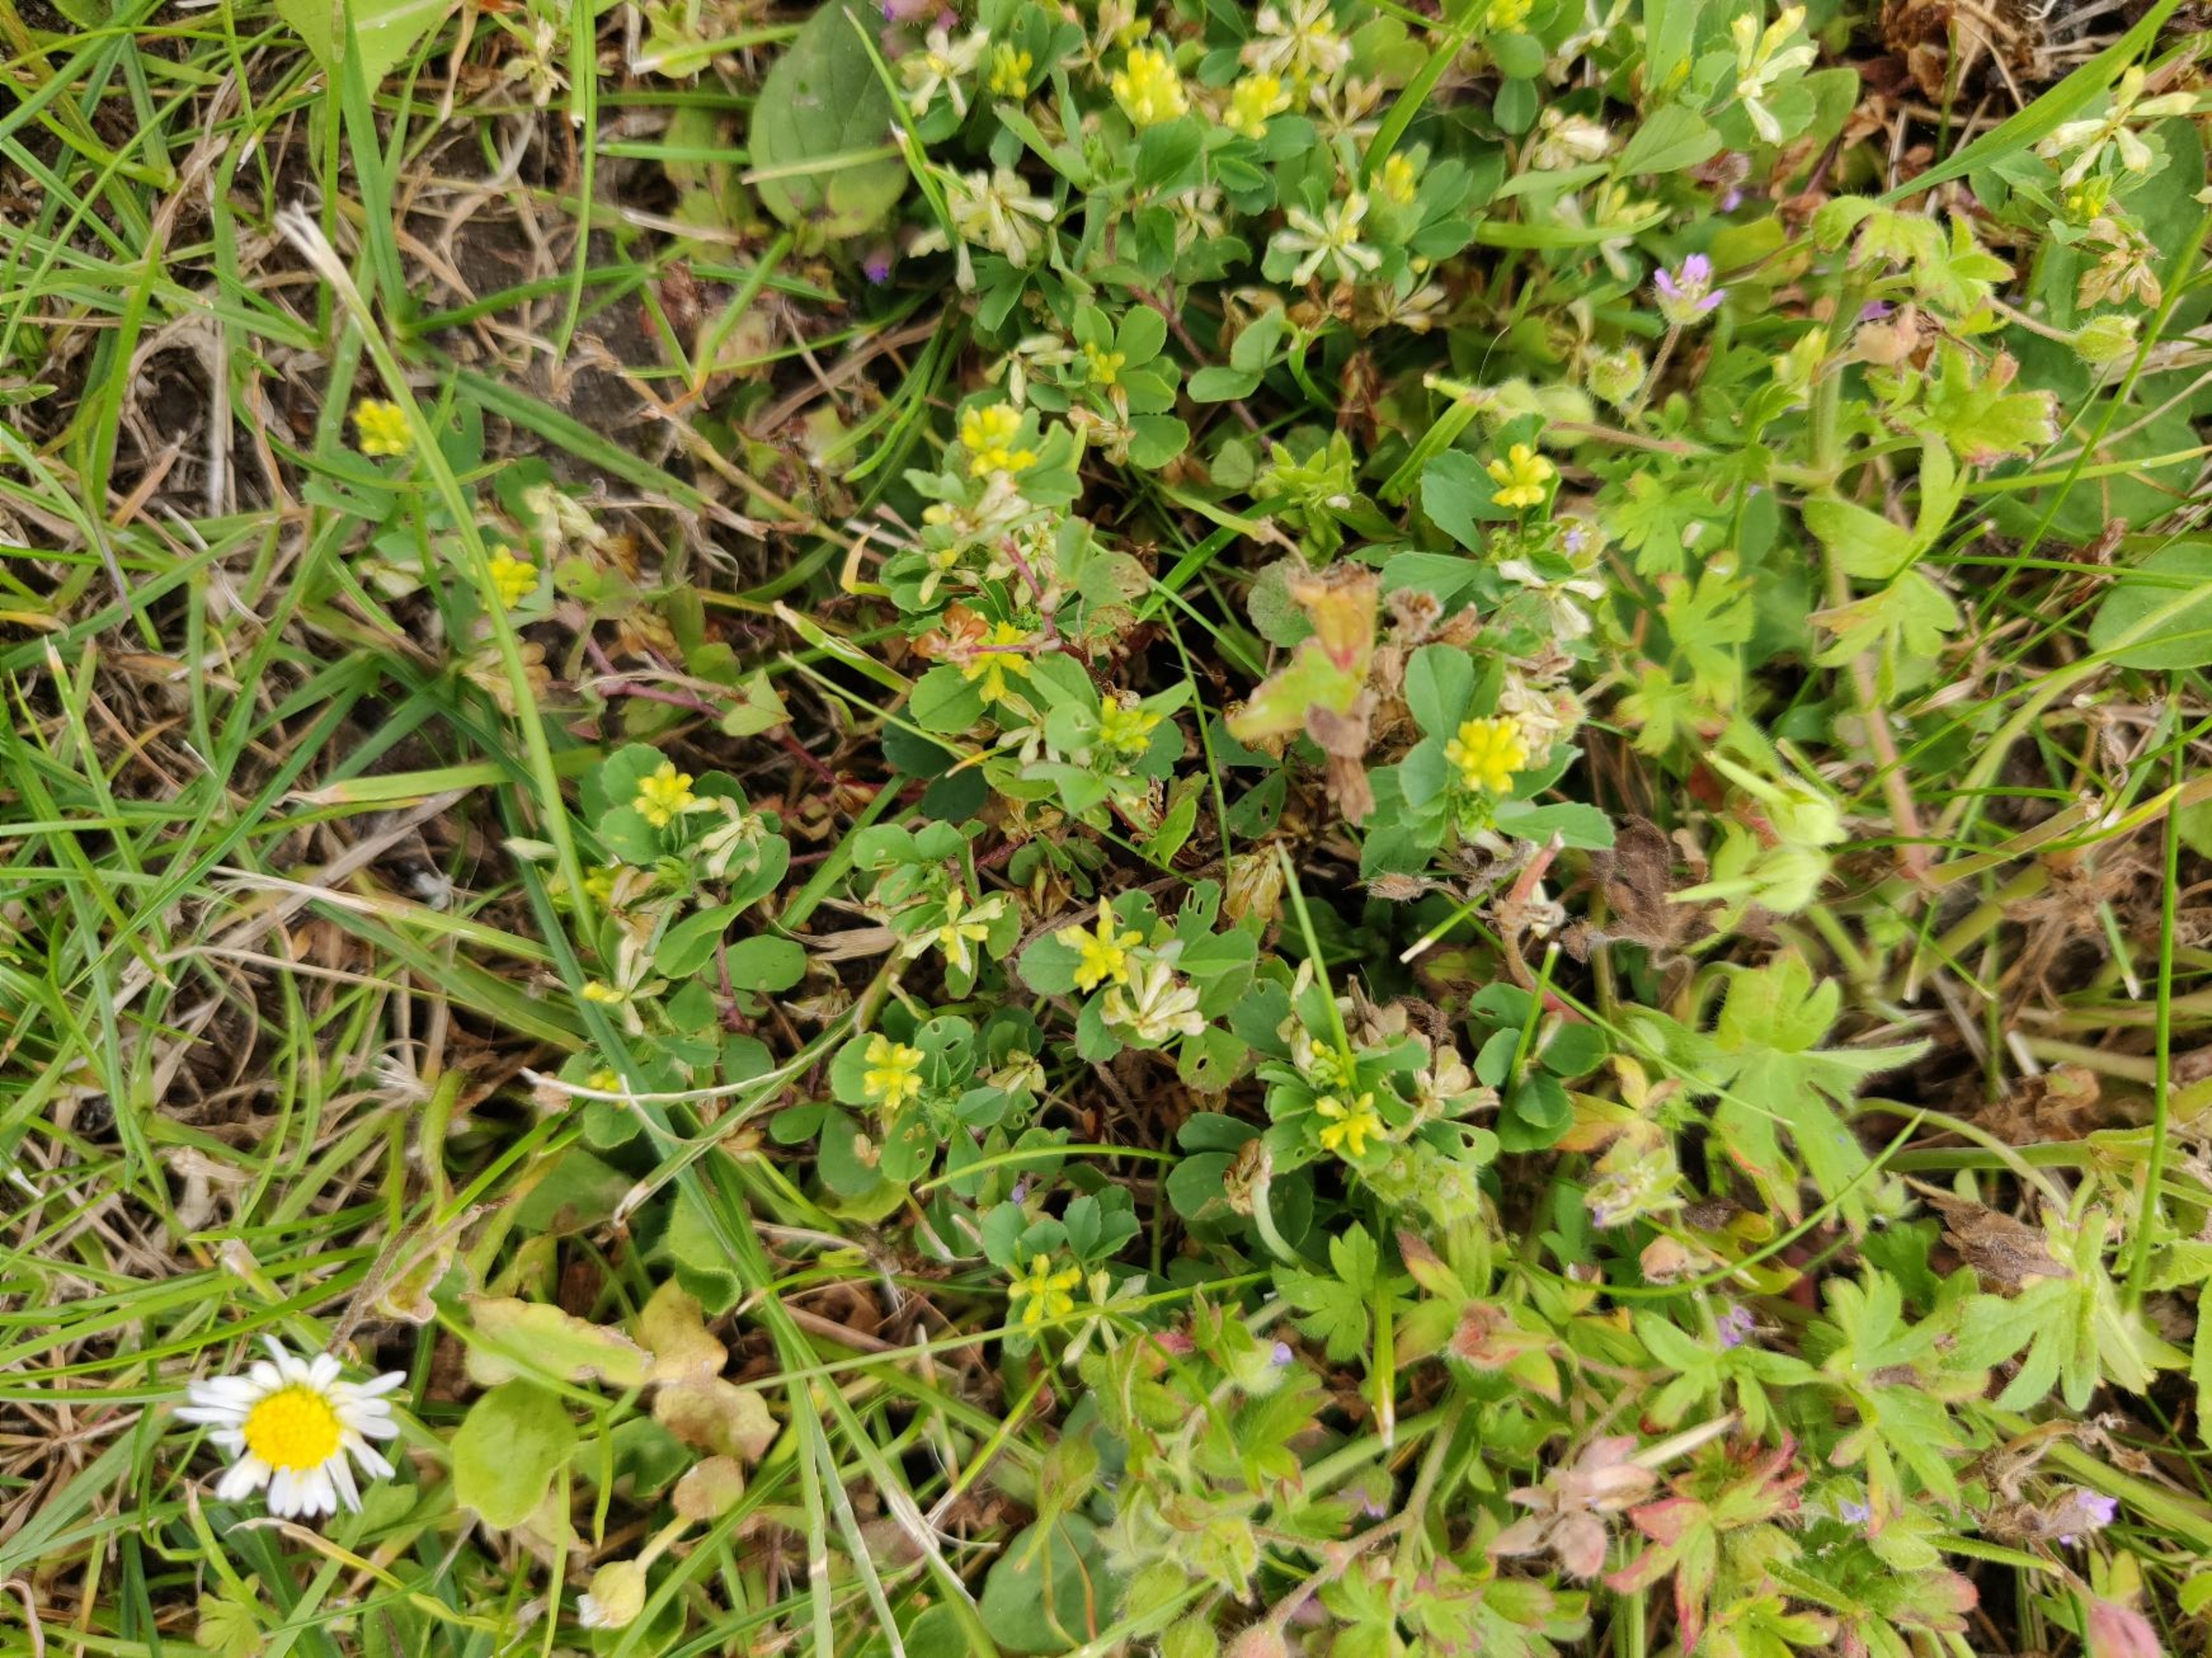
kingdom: Plantae
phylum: Tracheophyta
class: Magnoliopsida
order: Fabales
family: Fabaceae
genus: Trifolium
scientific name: Trifolium dubium
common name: Fin kløver
